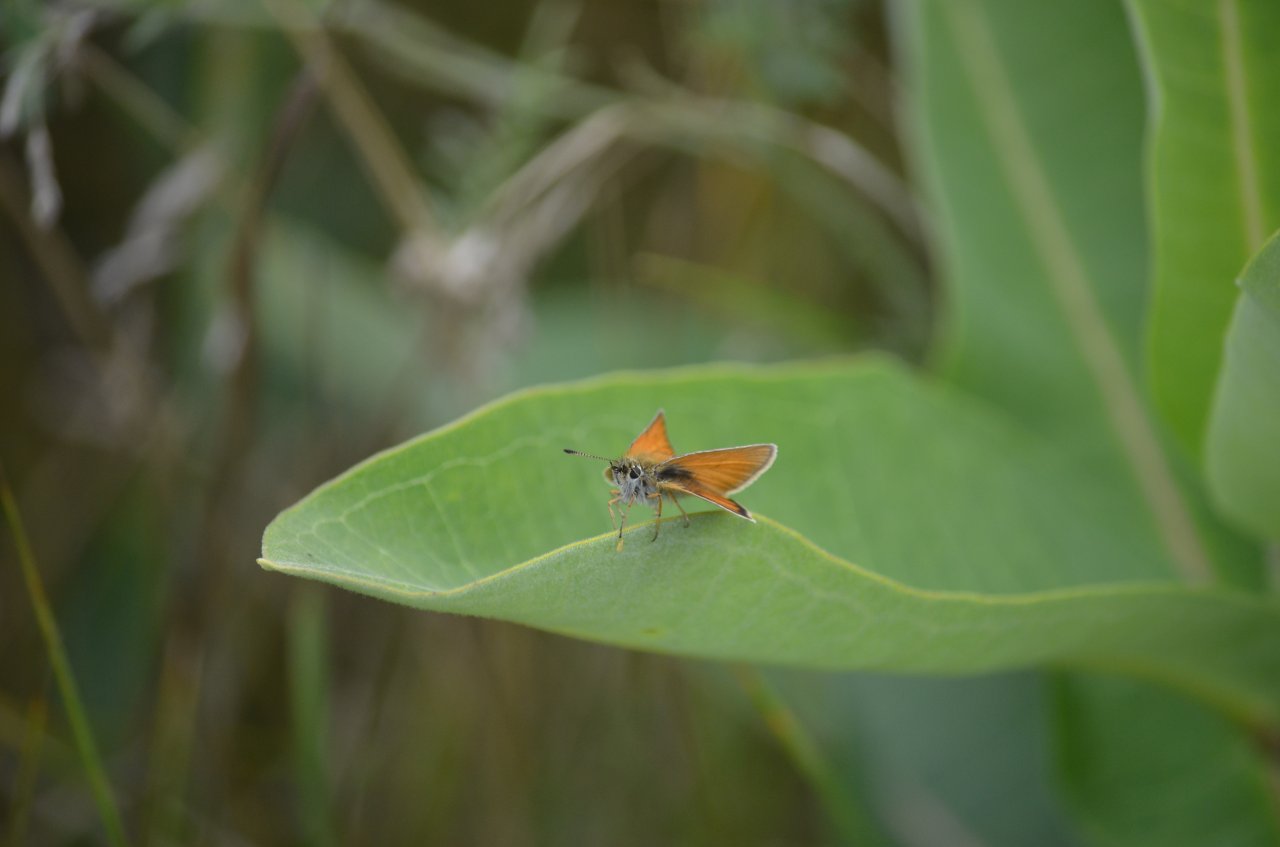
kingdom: Animalia
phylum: Arthropoda
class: Insecta
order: Lepidoptera
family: Hesperiidae
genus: Thymelicus
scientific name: Thymelicus lineola
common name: European Skipper
